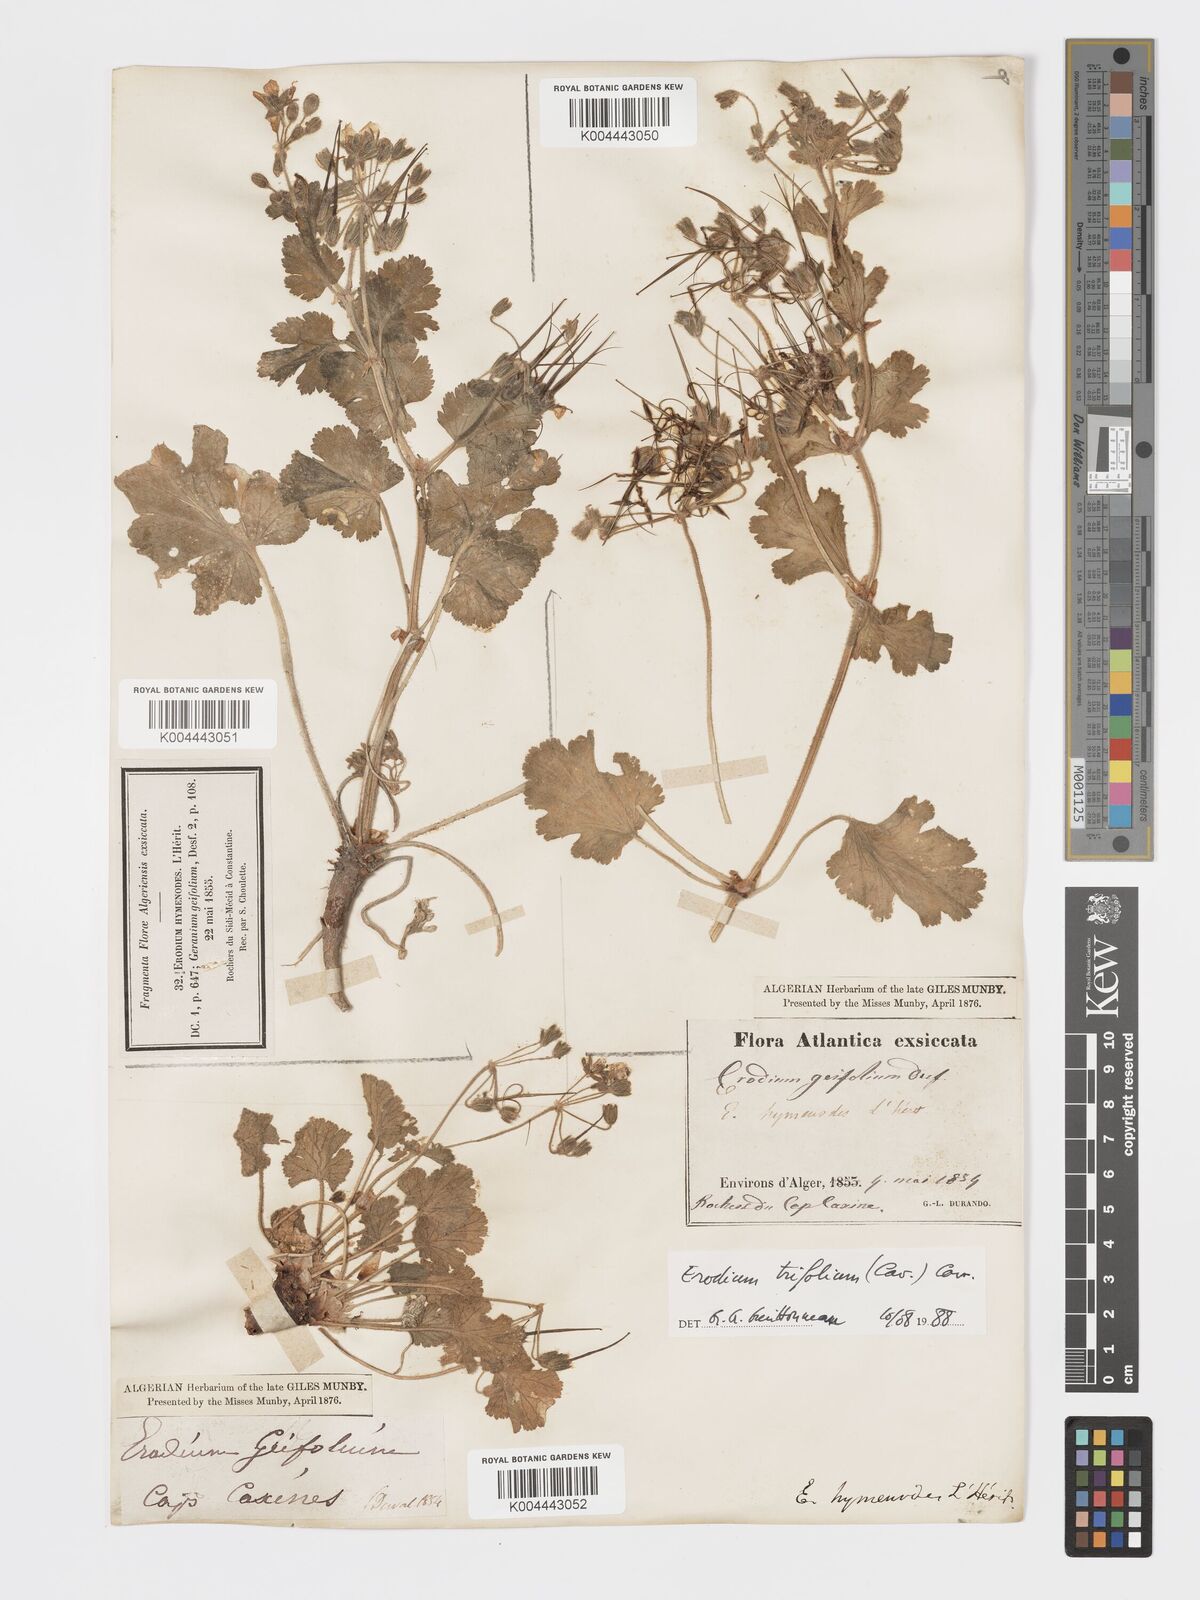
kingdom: Plantae
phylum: Tracheophyta
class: Magnoliopsida
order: Geraniales
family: Geraniaceae
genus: Erodium
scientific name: Erodium trifolium
